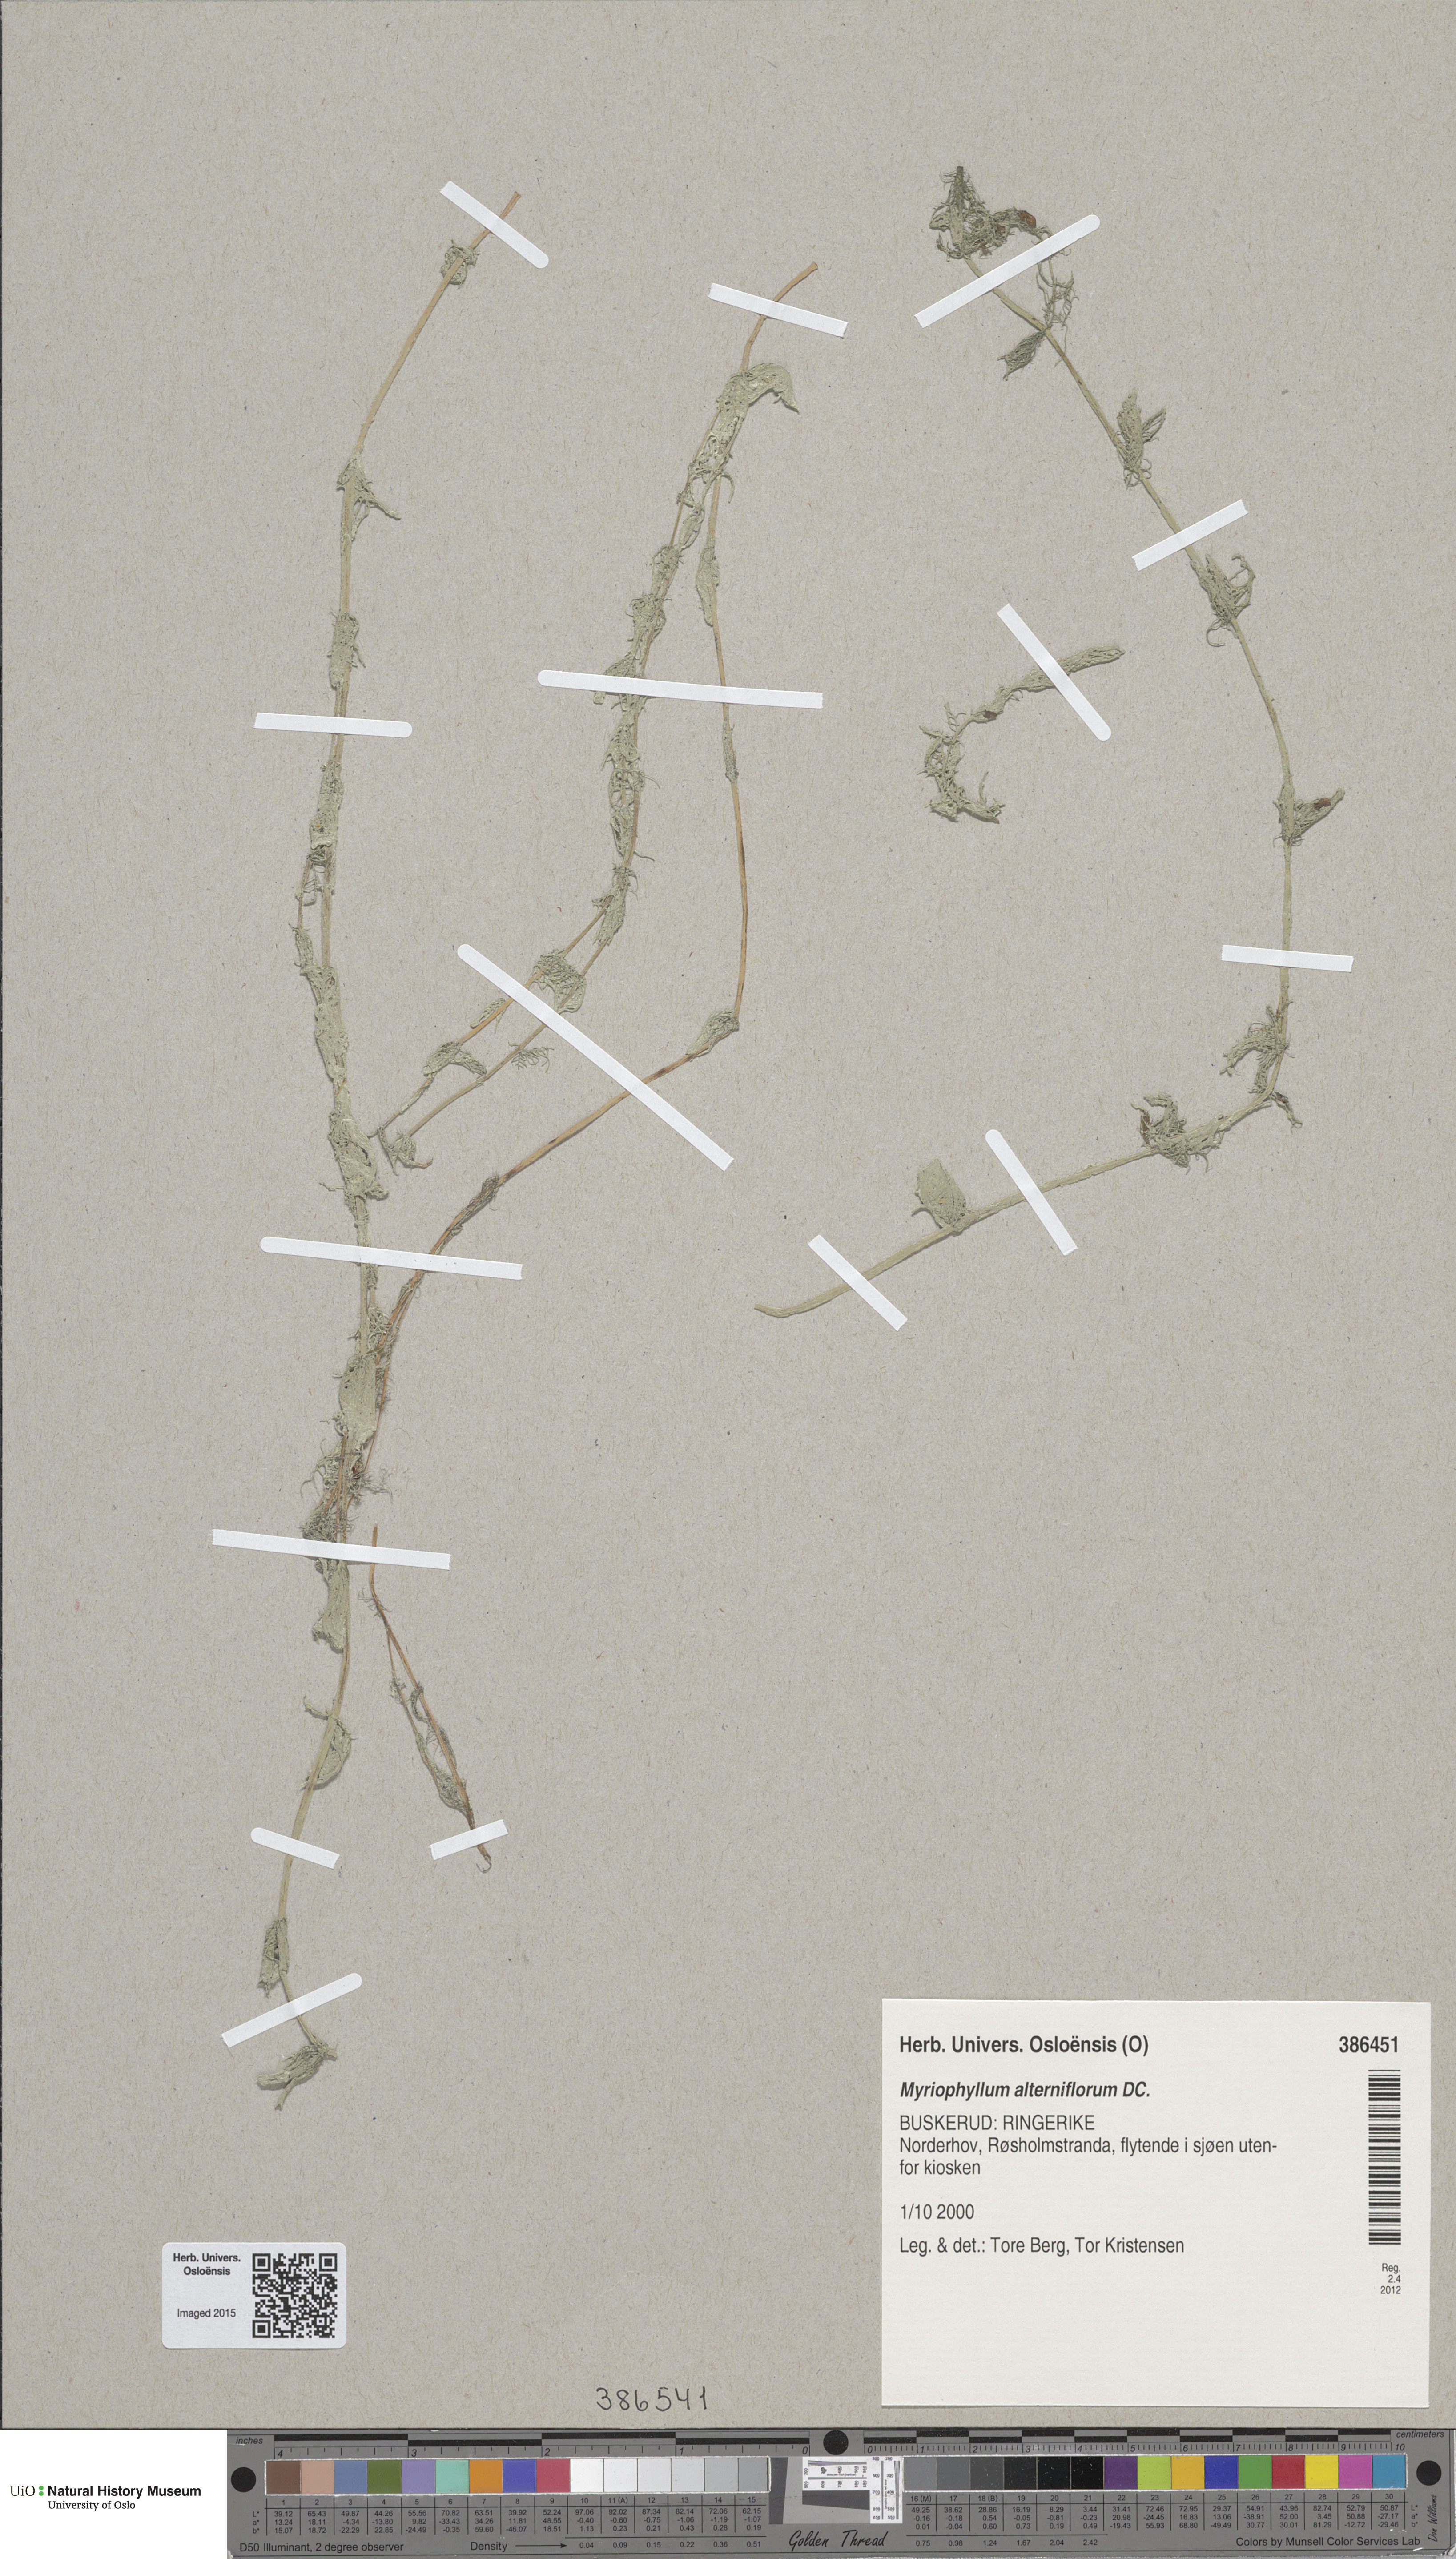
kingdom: Plantae
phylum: Tracheophyta
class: Magnoliopsida
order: Saxifragales
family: Haloragaceae
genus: Myriophyllum
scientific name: Myriophyllum alterniflorum
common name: Alternate water-milfoil
